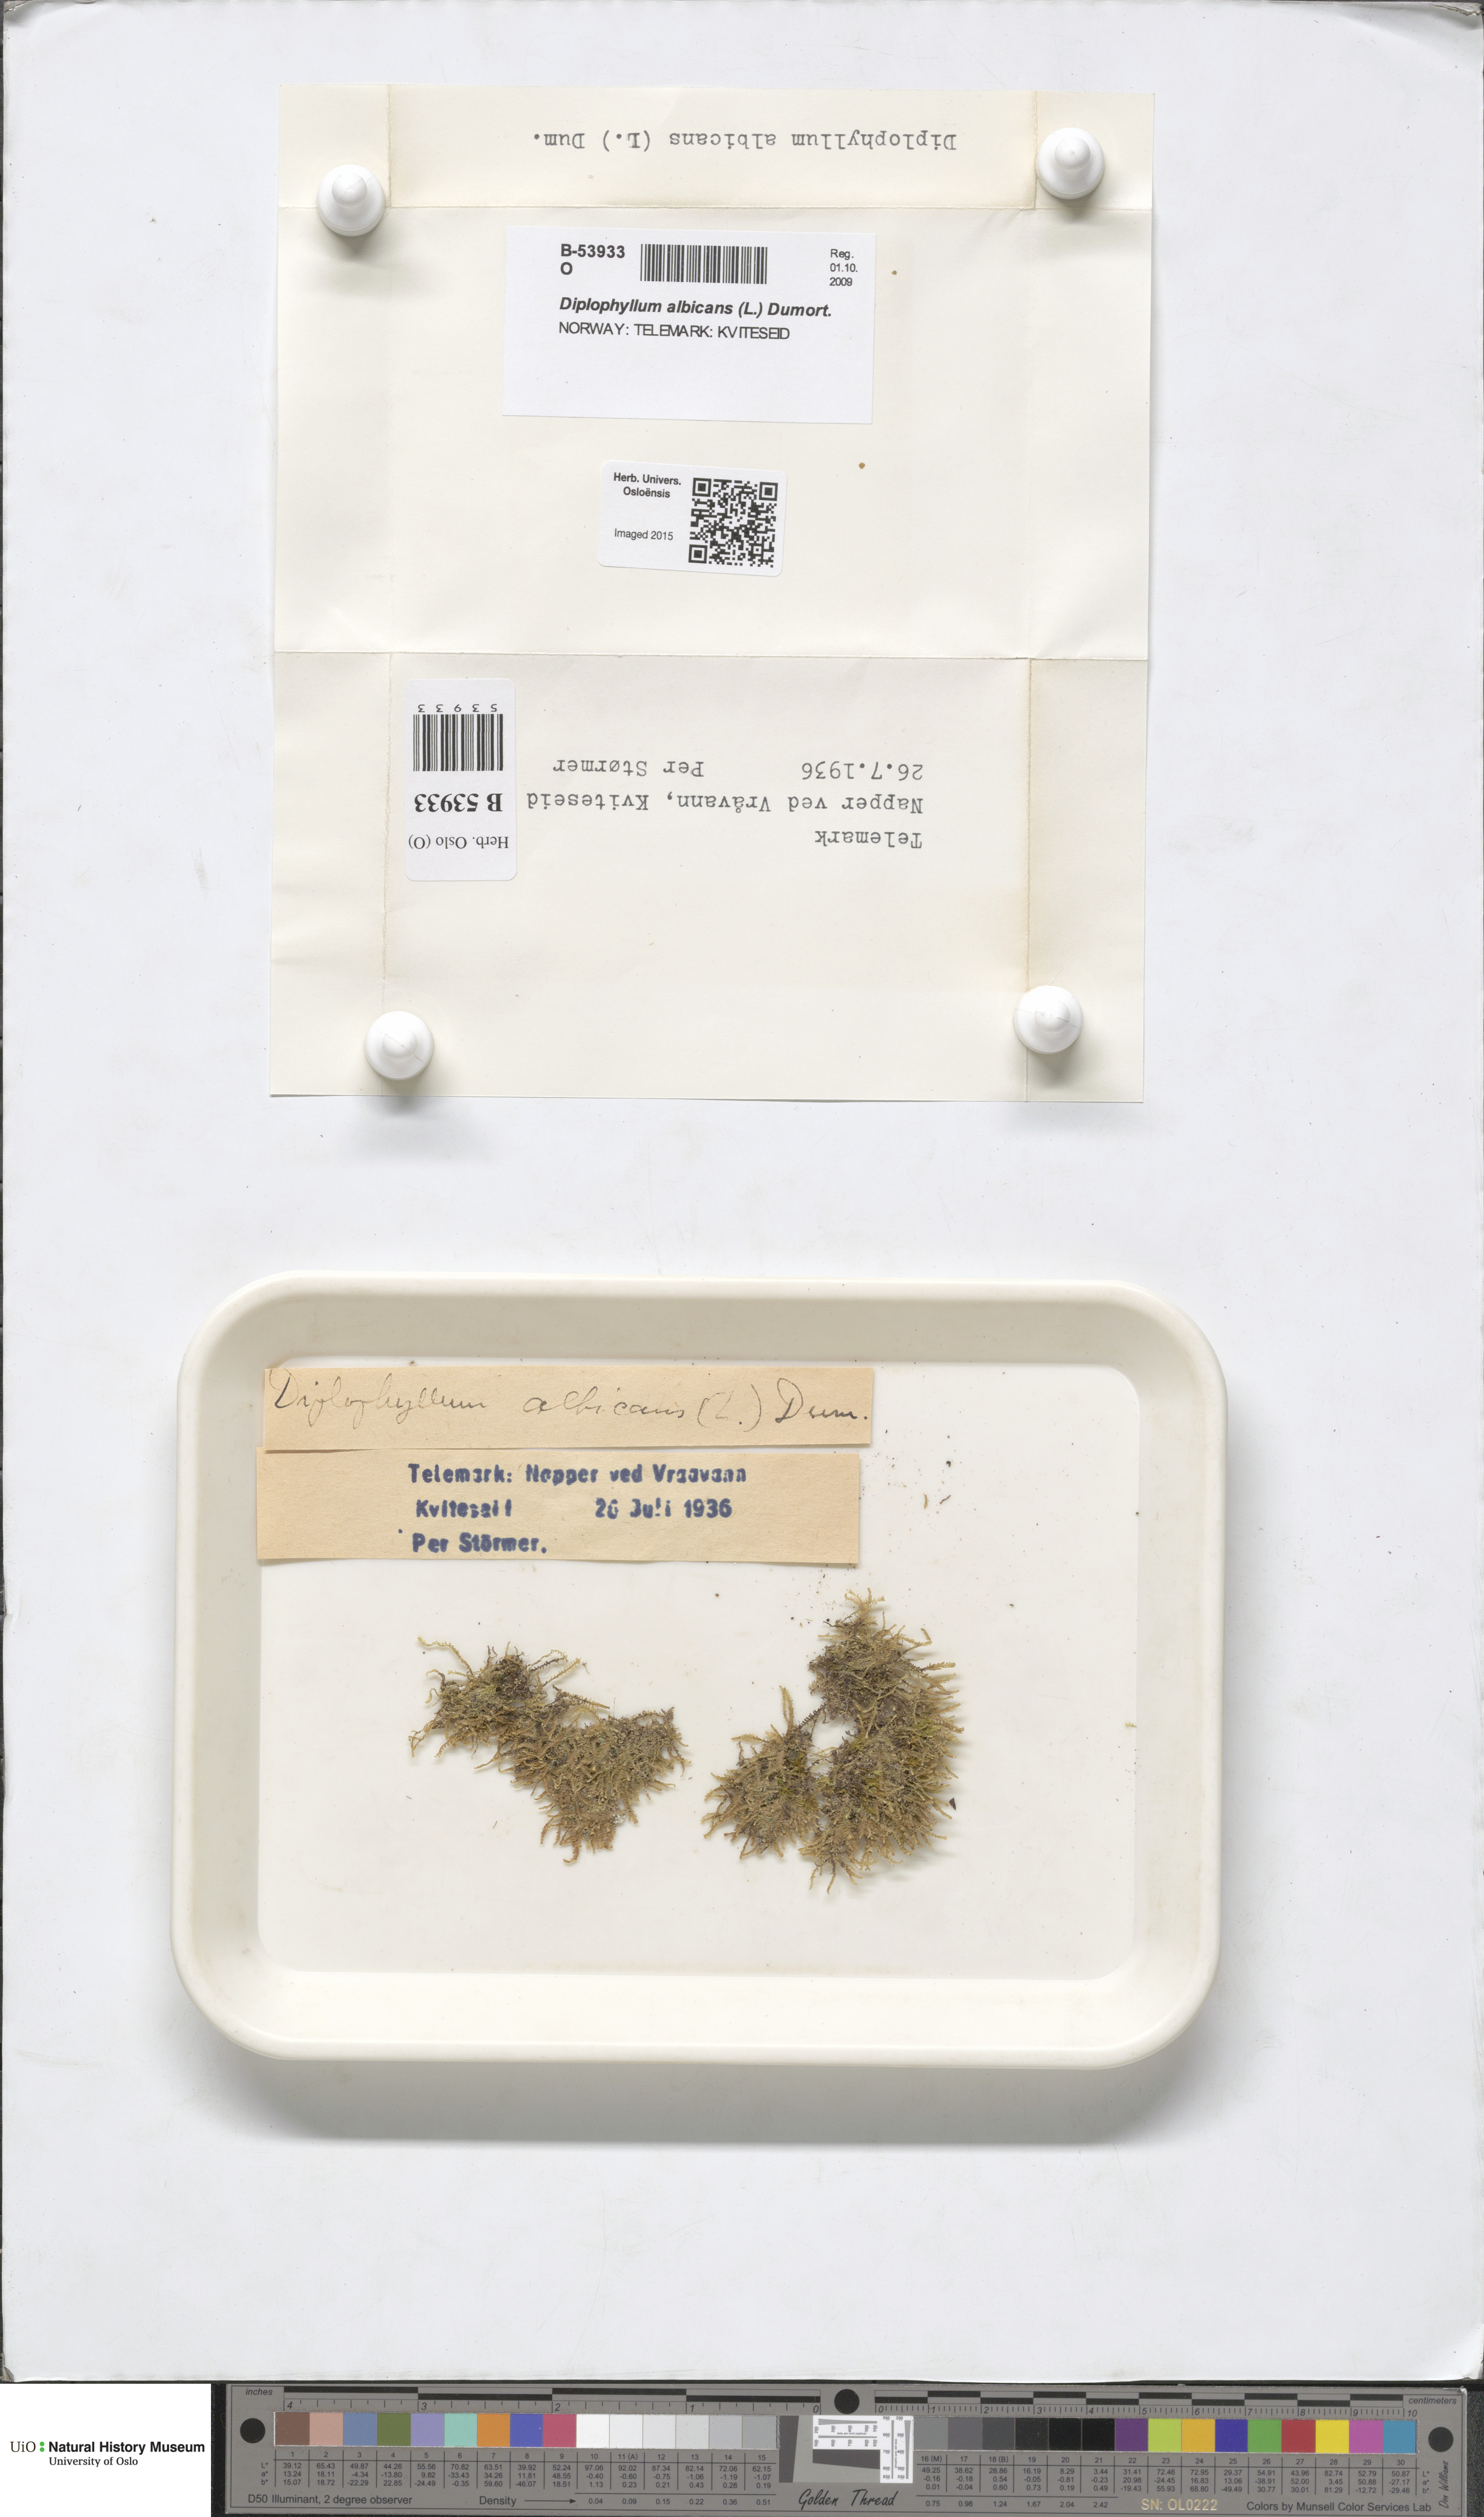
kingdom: Plantae
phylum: Marchantiophyta
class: Jungermanniopsida
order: Jungermanniales
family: Scapaniaceae
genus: Diplophyllum
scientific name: Diplophyllum albicans
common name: White earwort
